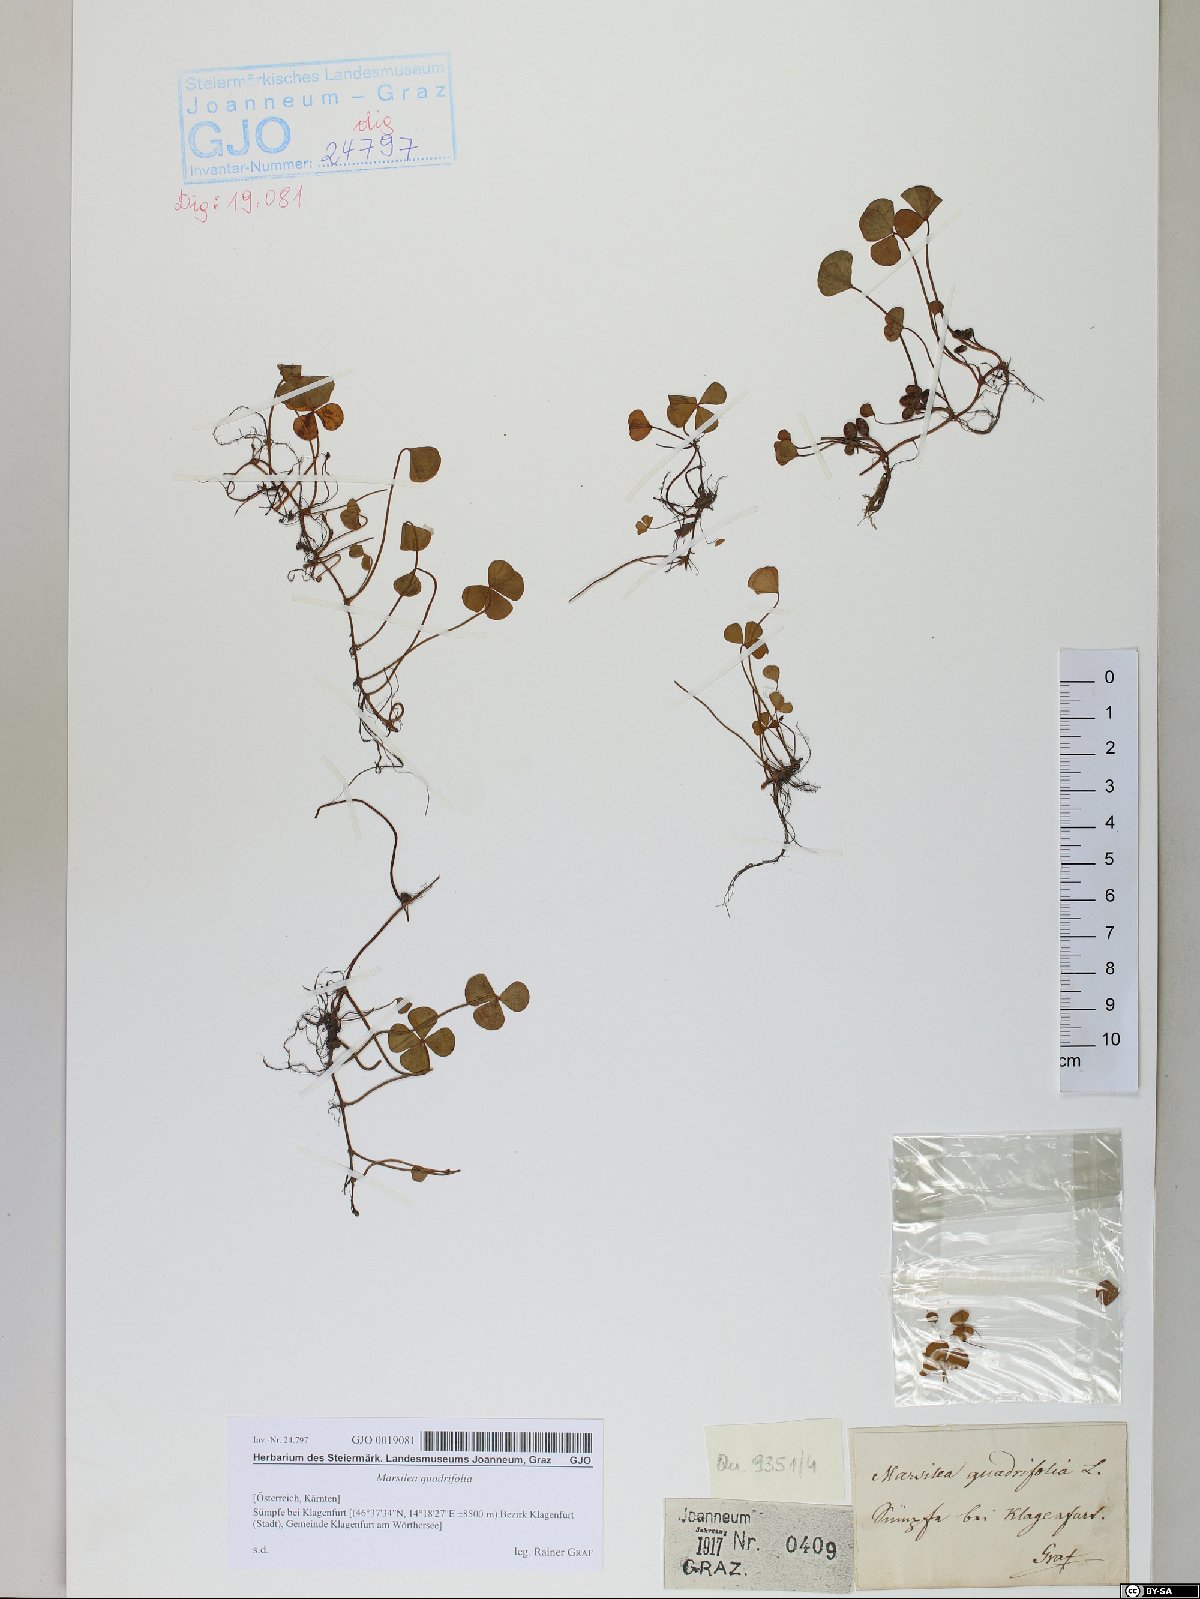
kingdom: Plantae
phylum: Tracheophyta
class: Polypodiopsida
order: Salviniales
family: Marsileaceae
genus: Marsilea
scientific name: Marsilea quadrifolia
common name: Water shamrock
